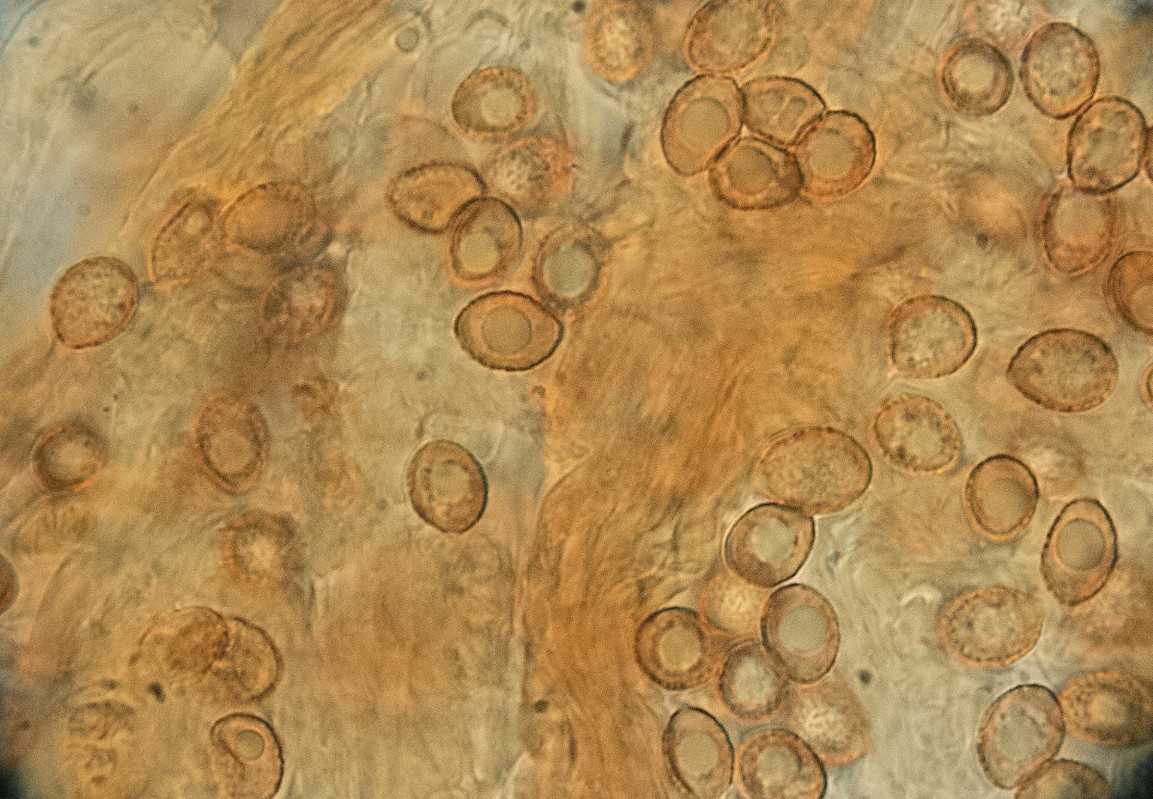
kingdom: Fungi
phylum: Basidiomycota
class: Agaricomycetes
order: Agaricales
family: Cortinariaceae
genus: Aureonarius
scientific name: Aureonarius limonius
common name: orangegul slørhat
